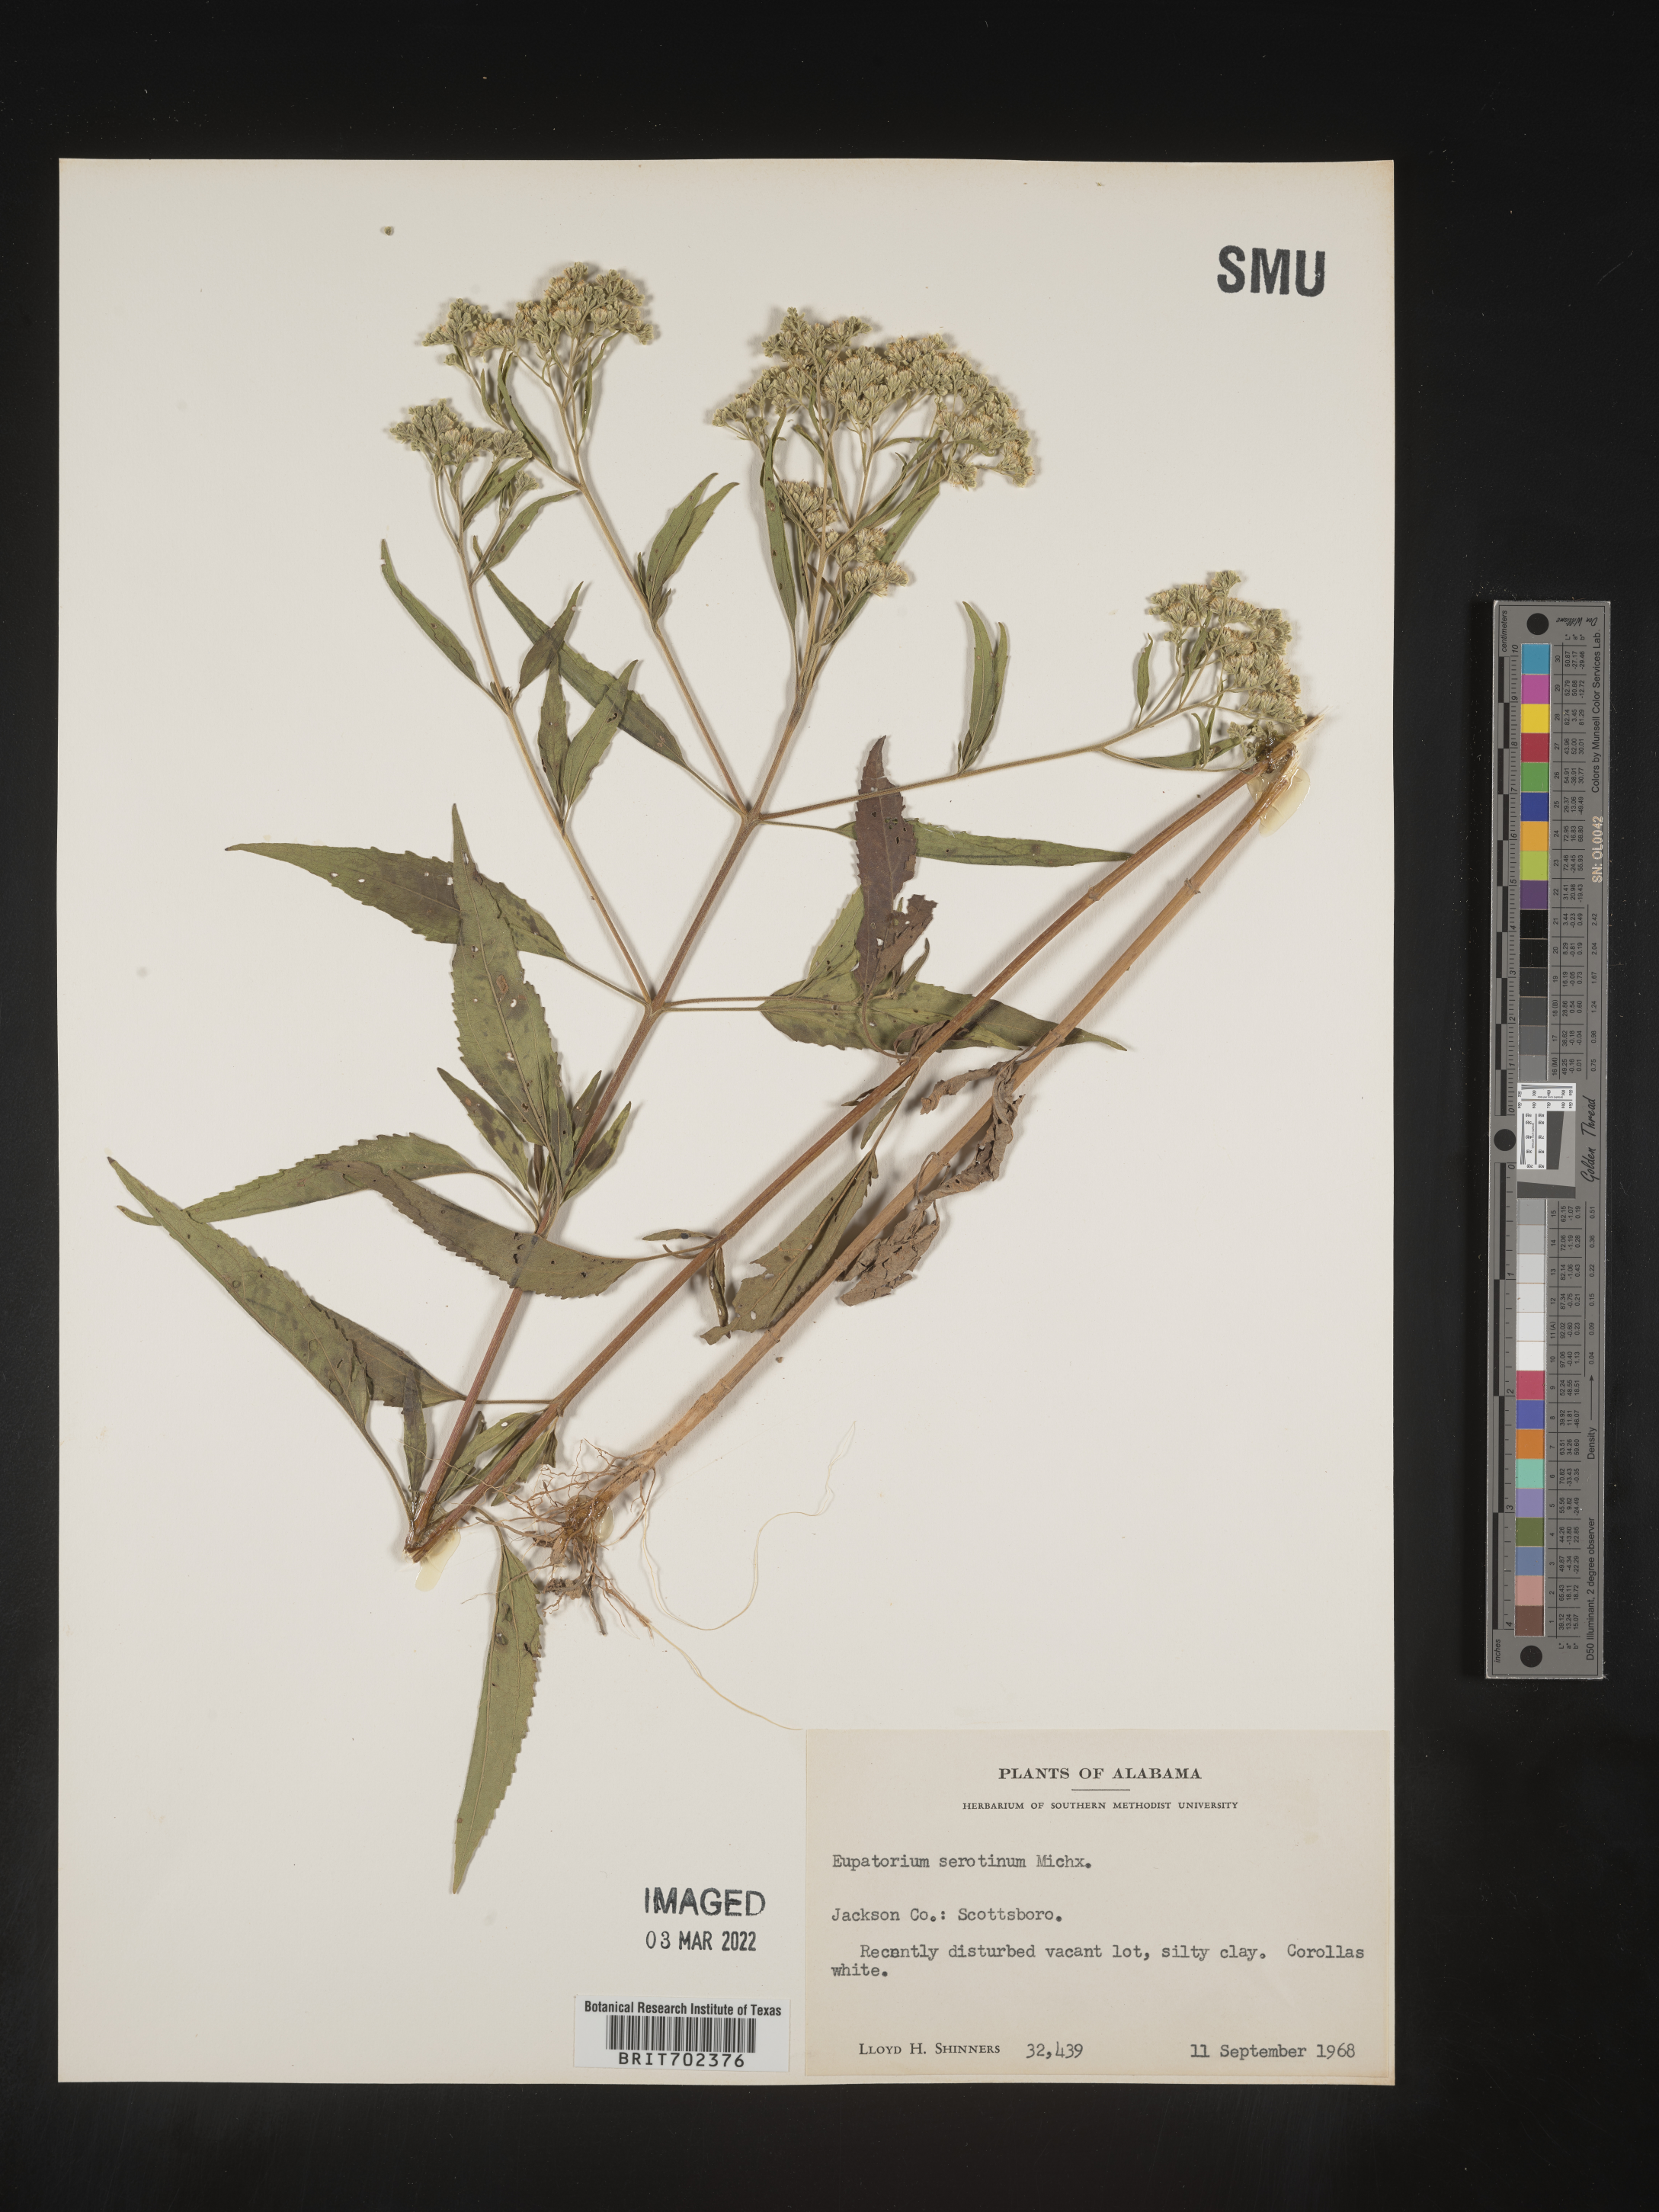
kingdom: Plantae
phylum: Tracheophyta
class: Magnoliopsida
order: Asterales
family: Asteraceae
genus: Eupatorium
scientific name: Eupatorium serotinum
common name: Late boneset
